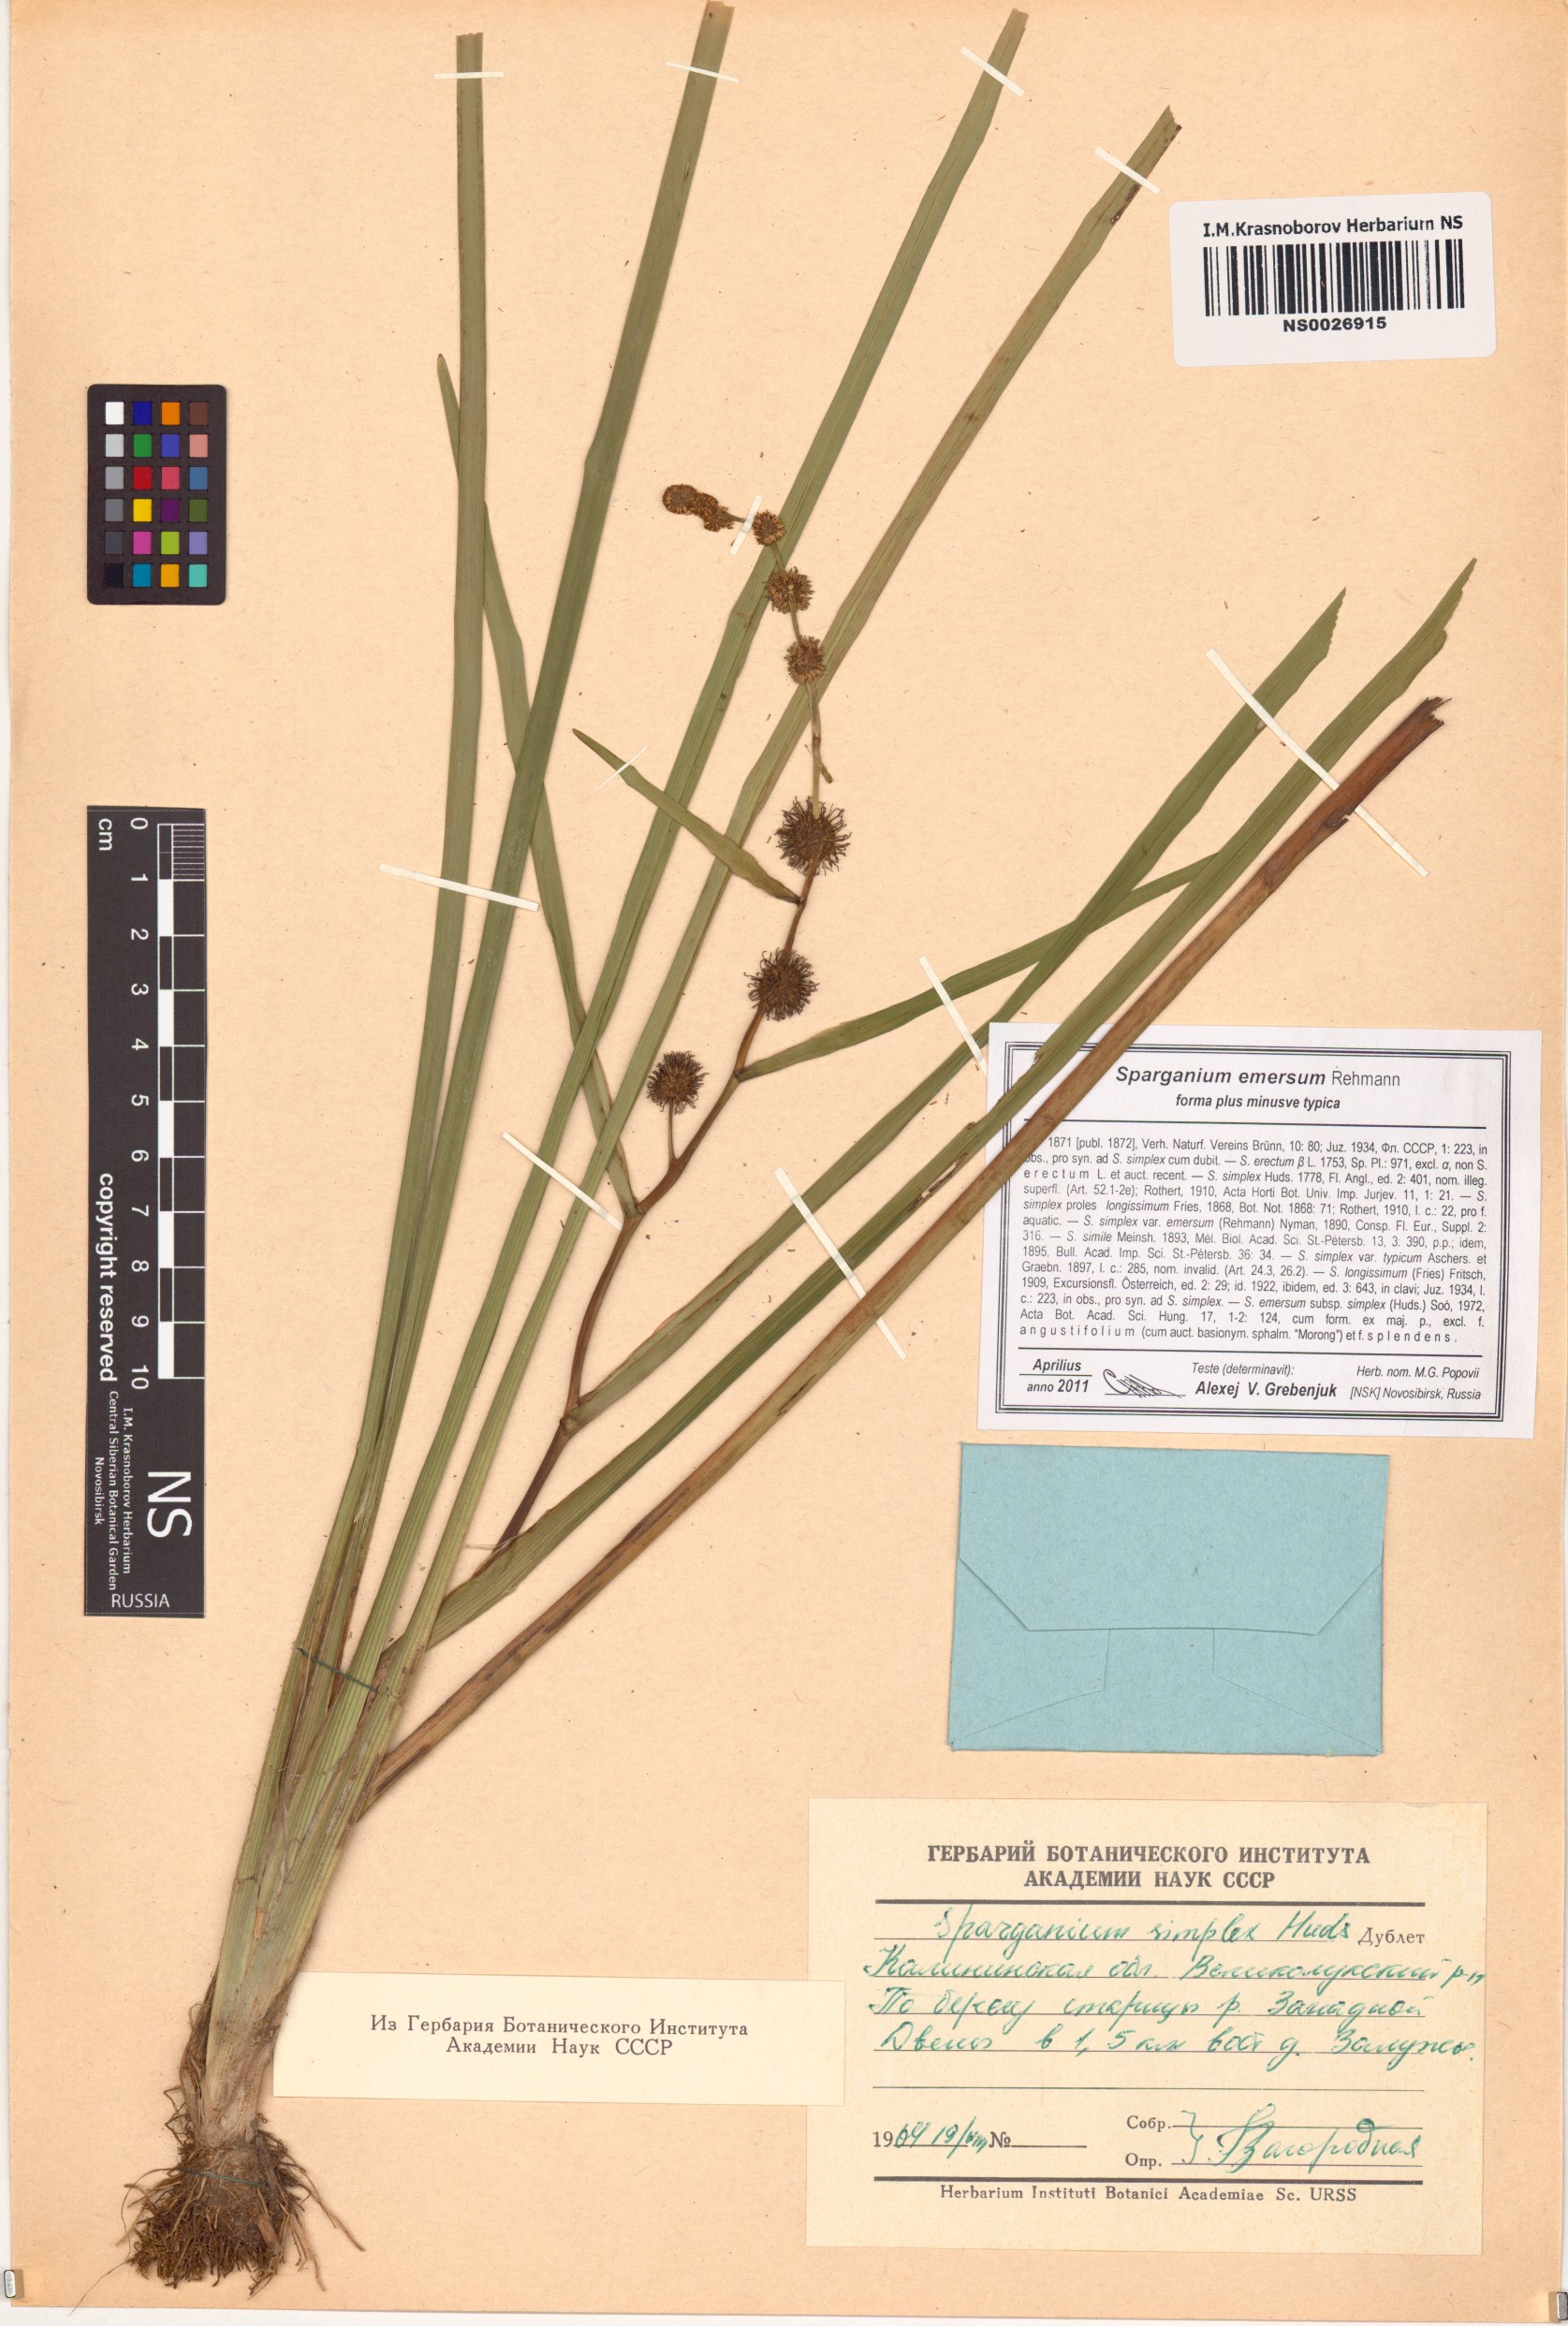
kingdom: Plantae
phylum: Tracheophyta
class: Liliopsida
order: Poales
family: Typhaceae
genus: Sparganium
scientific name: Sparganium emersum
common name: Unbranched bur-reed
